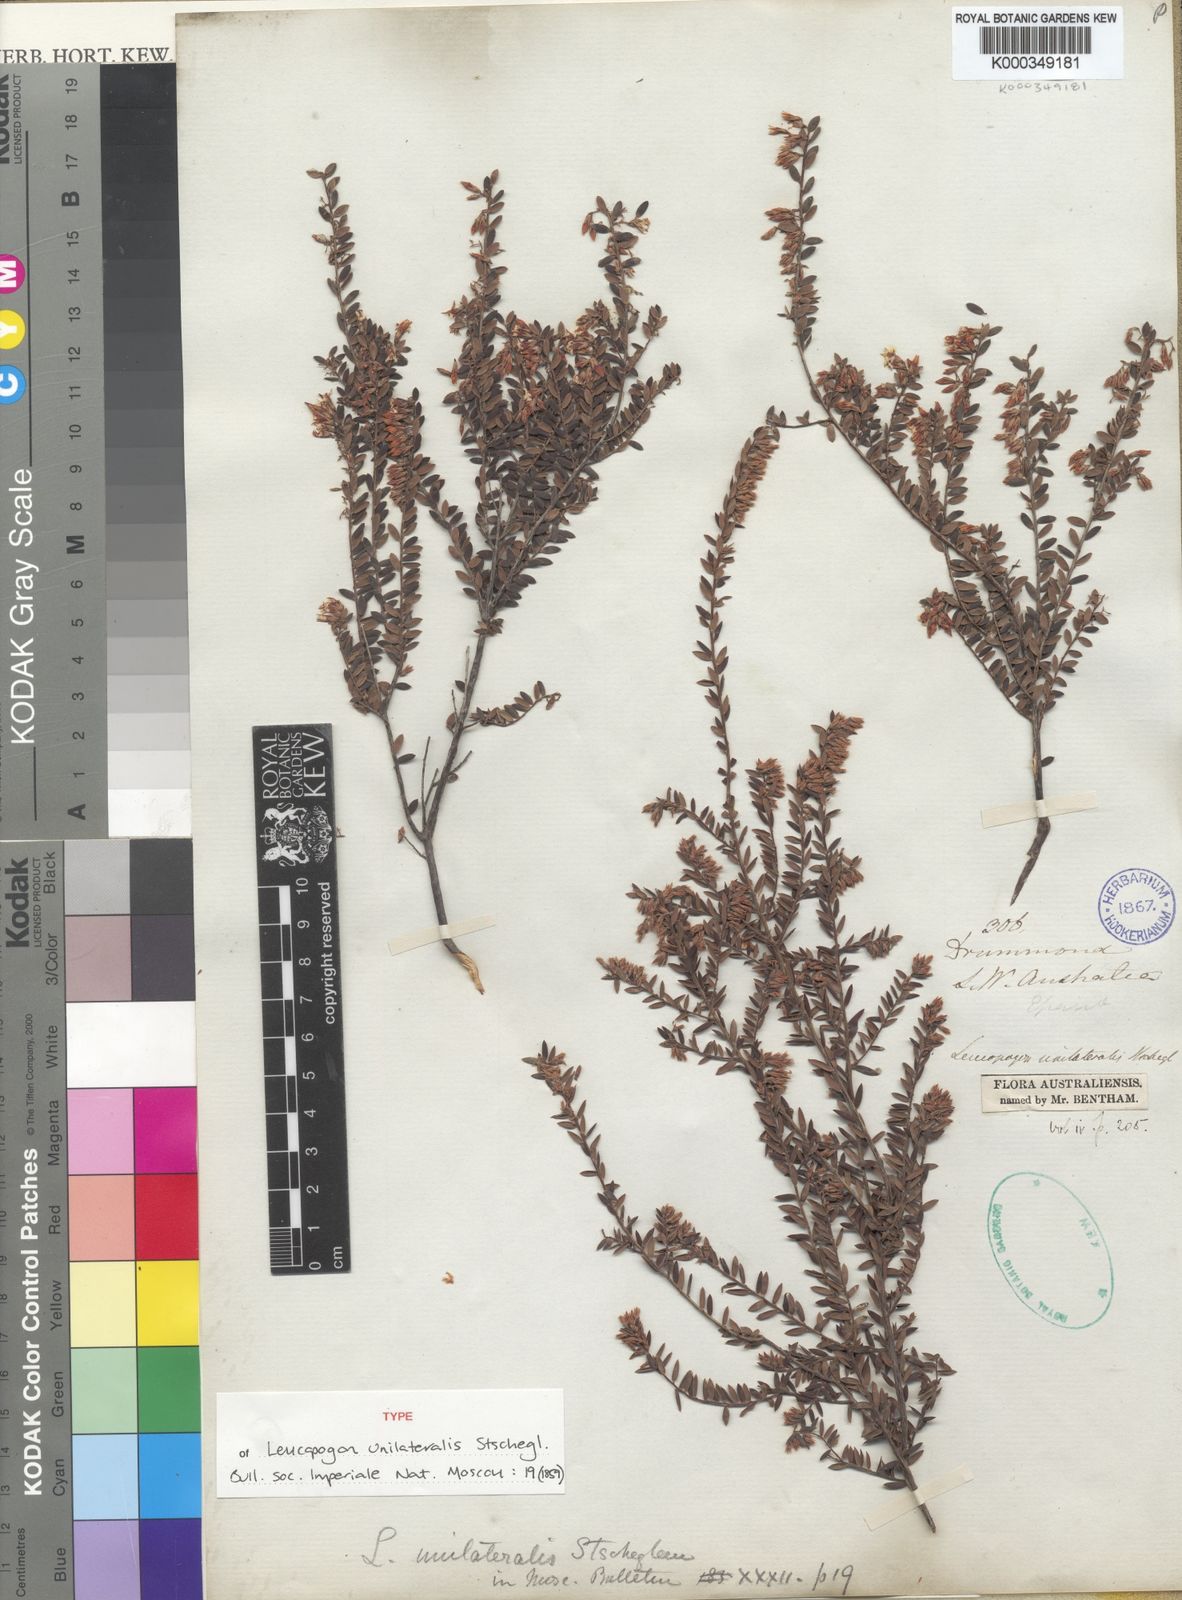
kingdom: Plantae
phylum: Tracheophyta
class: Magnoliopsida
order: Ericales
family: Ericaceae
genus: Leucopogon
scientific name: Leucopogon unilateralis
